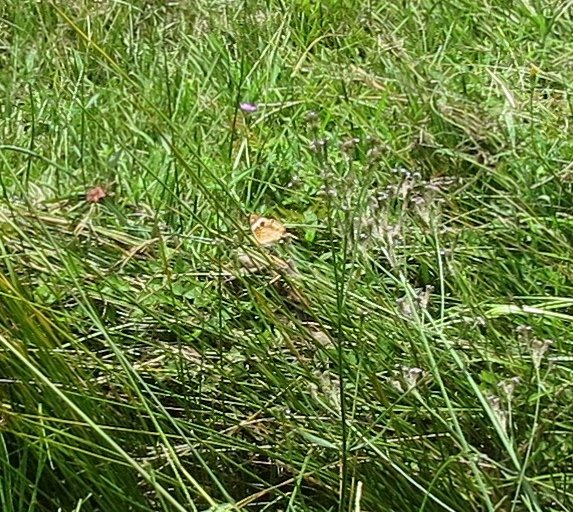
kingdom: Animalia
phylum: Arthropoda
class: Insecta
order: Lepidoptera
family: Nymphalidae
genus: Junonia
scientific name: Junonia coenia
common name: Common Buckeye
